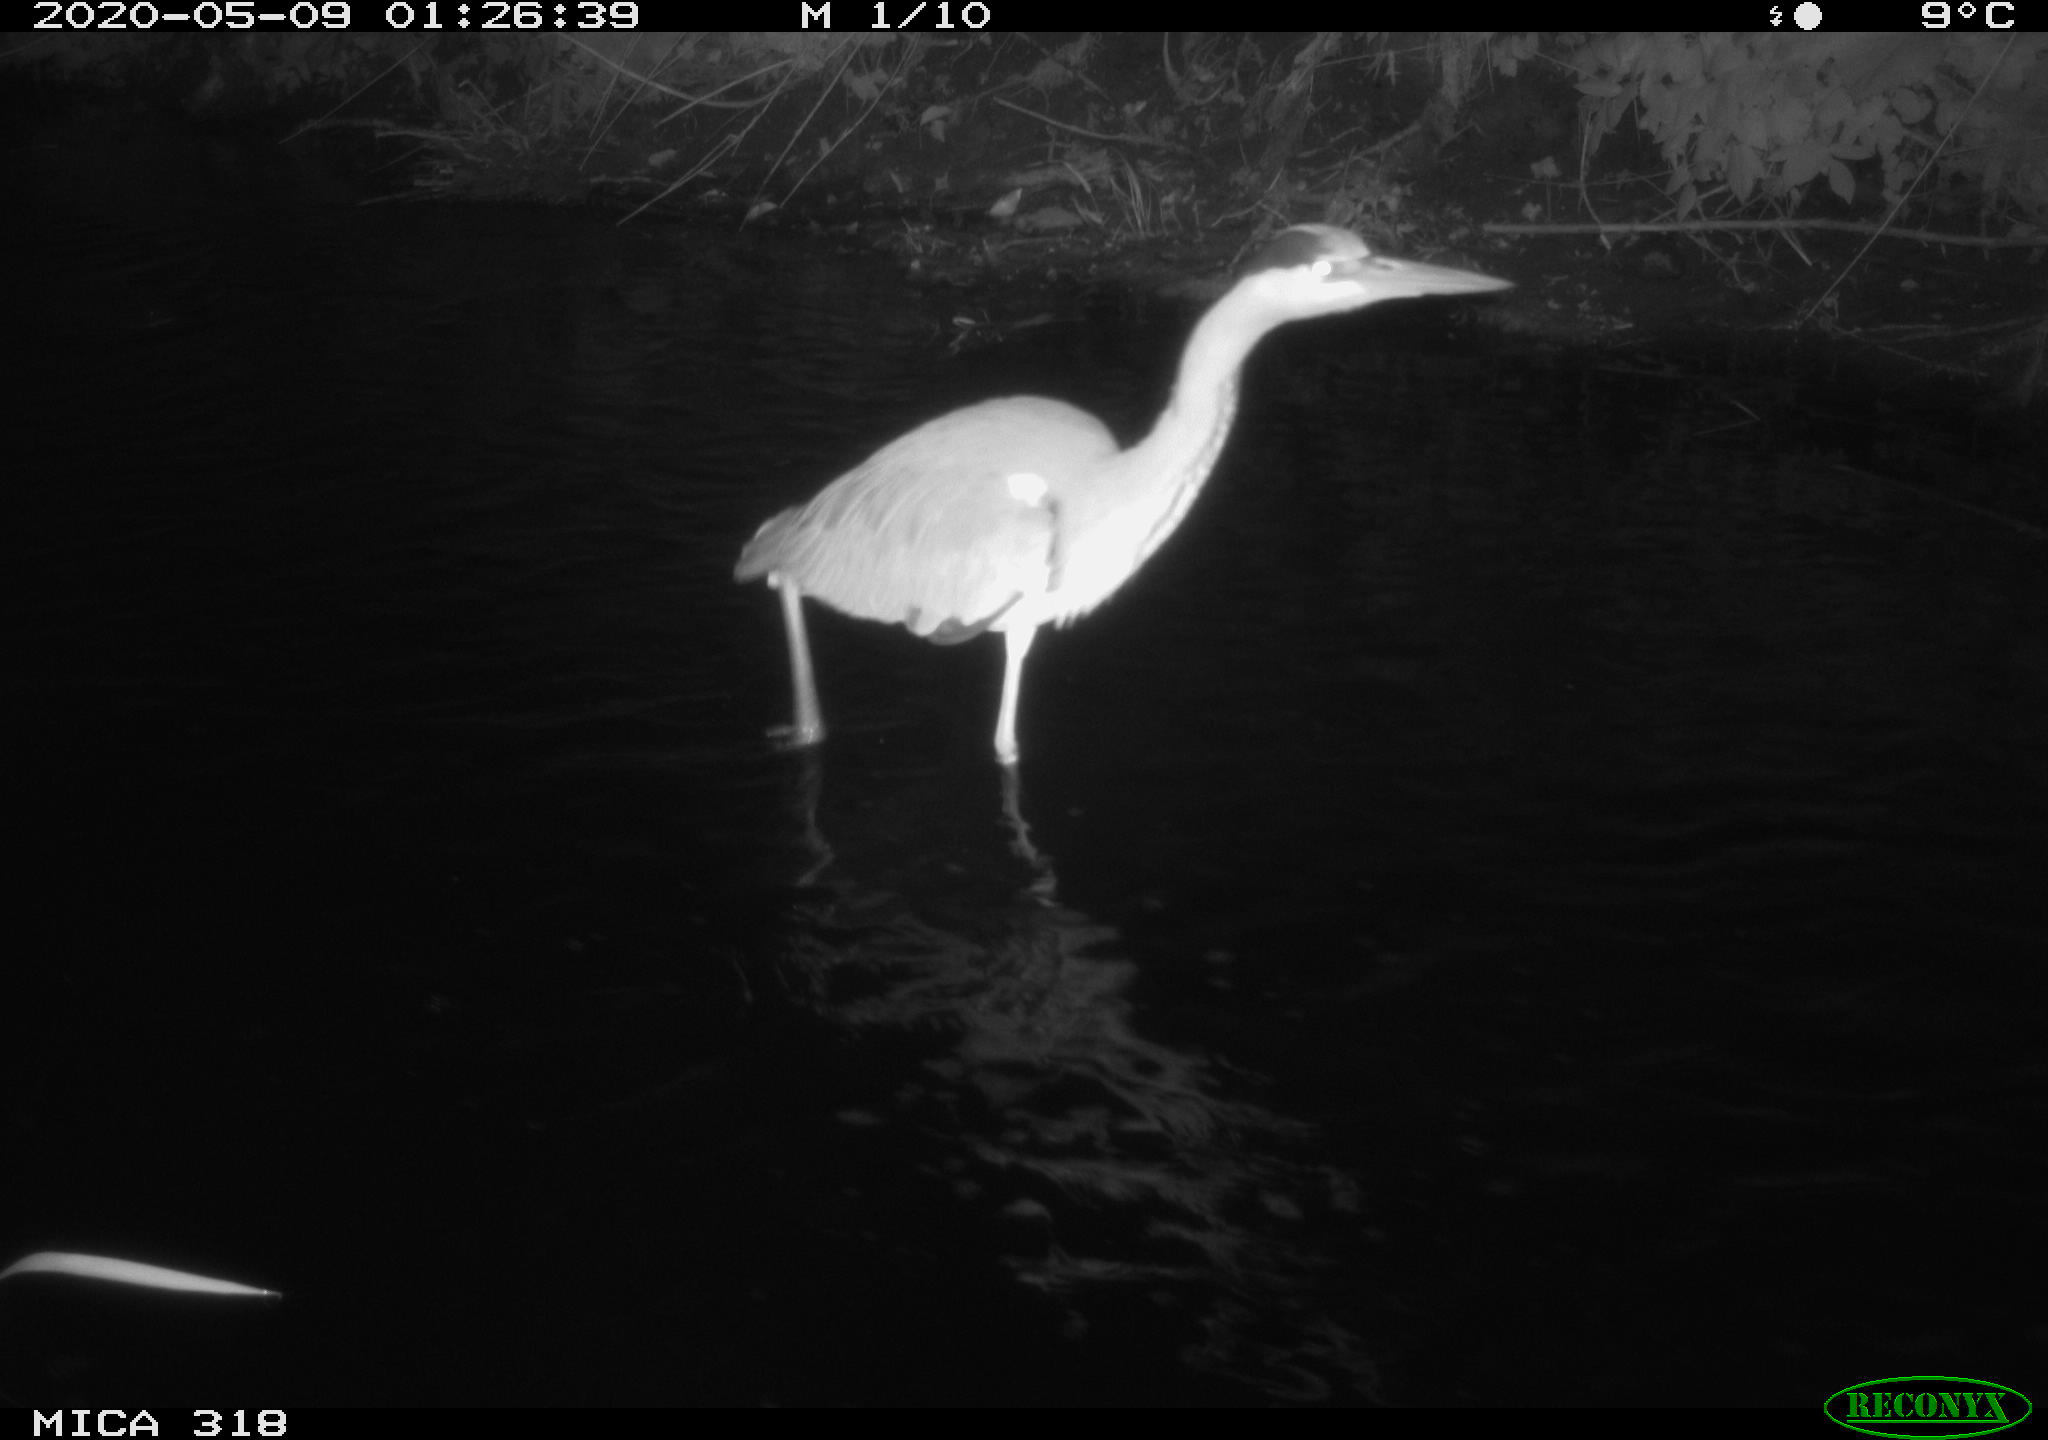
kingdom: Animalia
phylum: Chordata
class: Aves
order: Pelecaniformes
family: Ardeidae
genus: Ardea
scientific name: Ardea cinerea
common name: Grey heron
